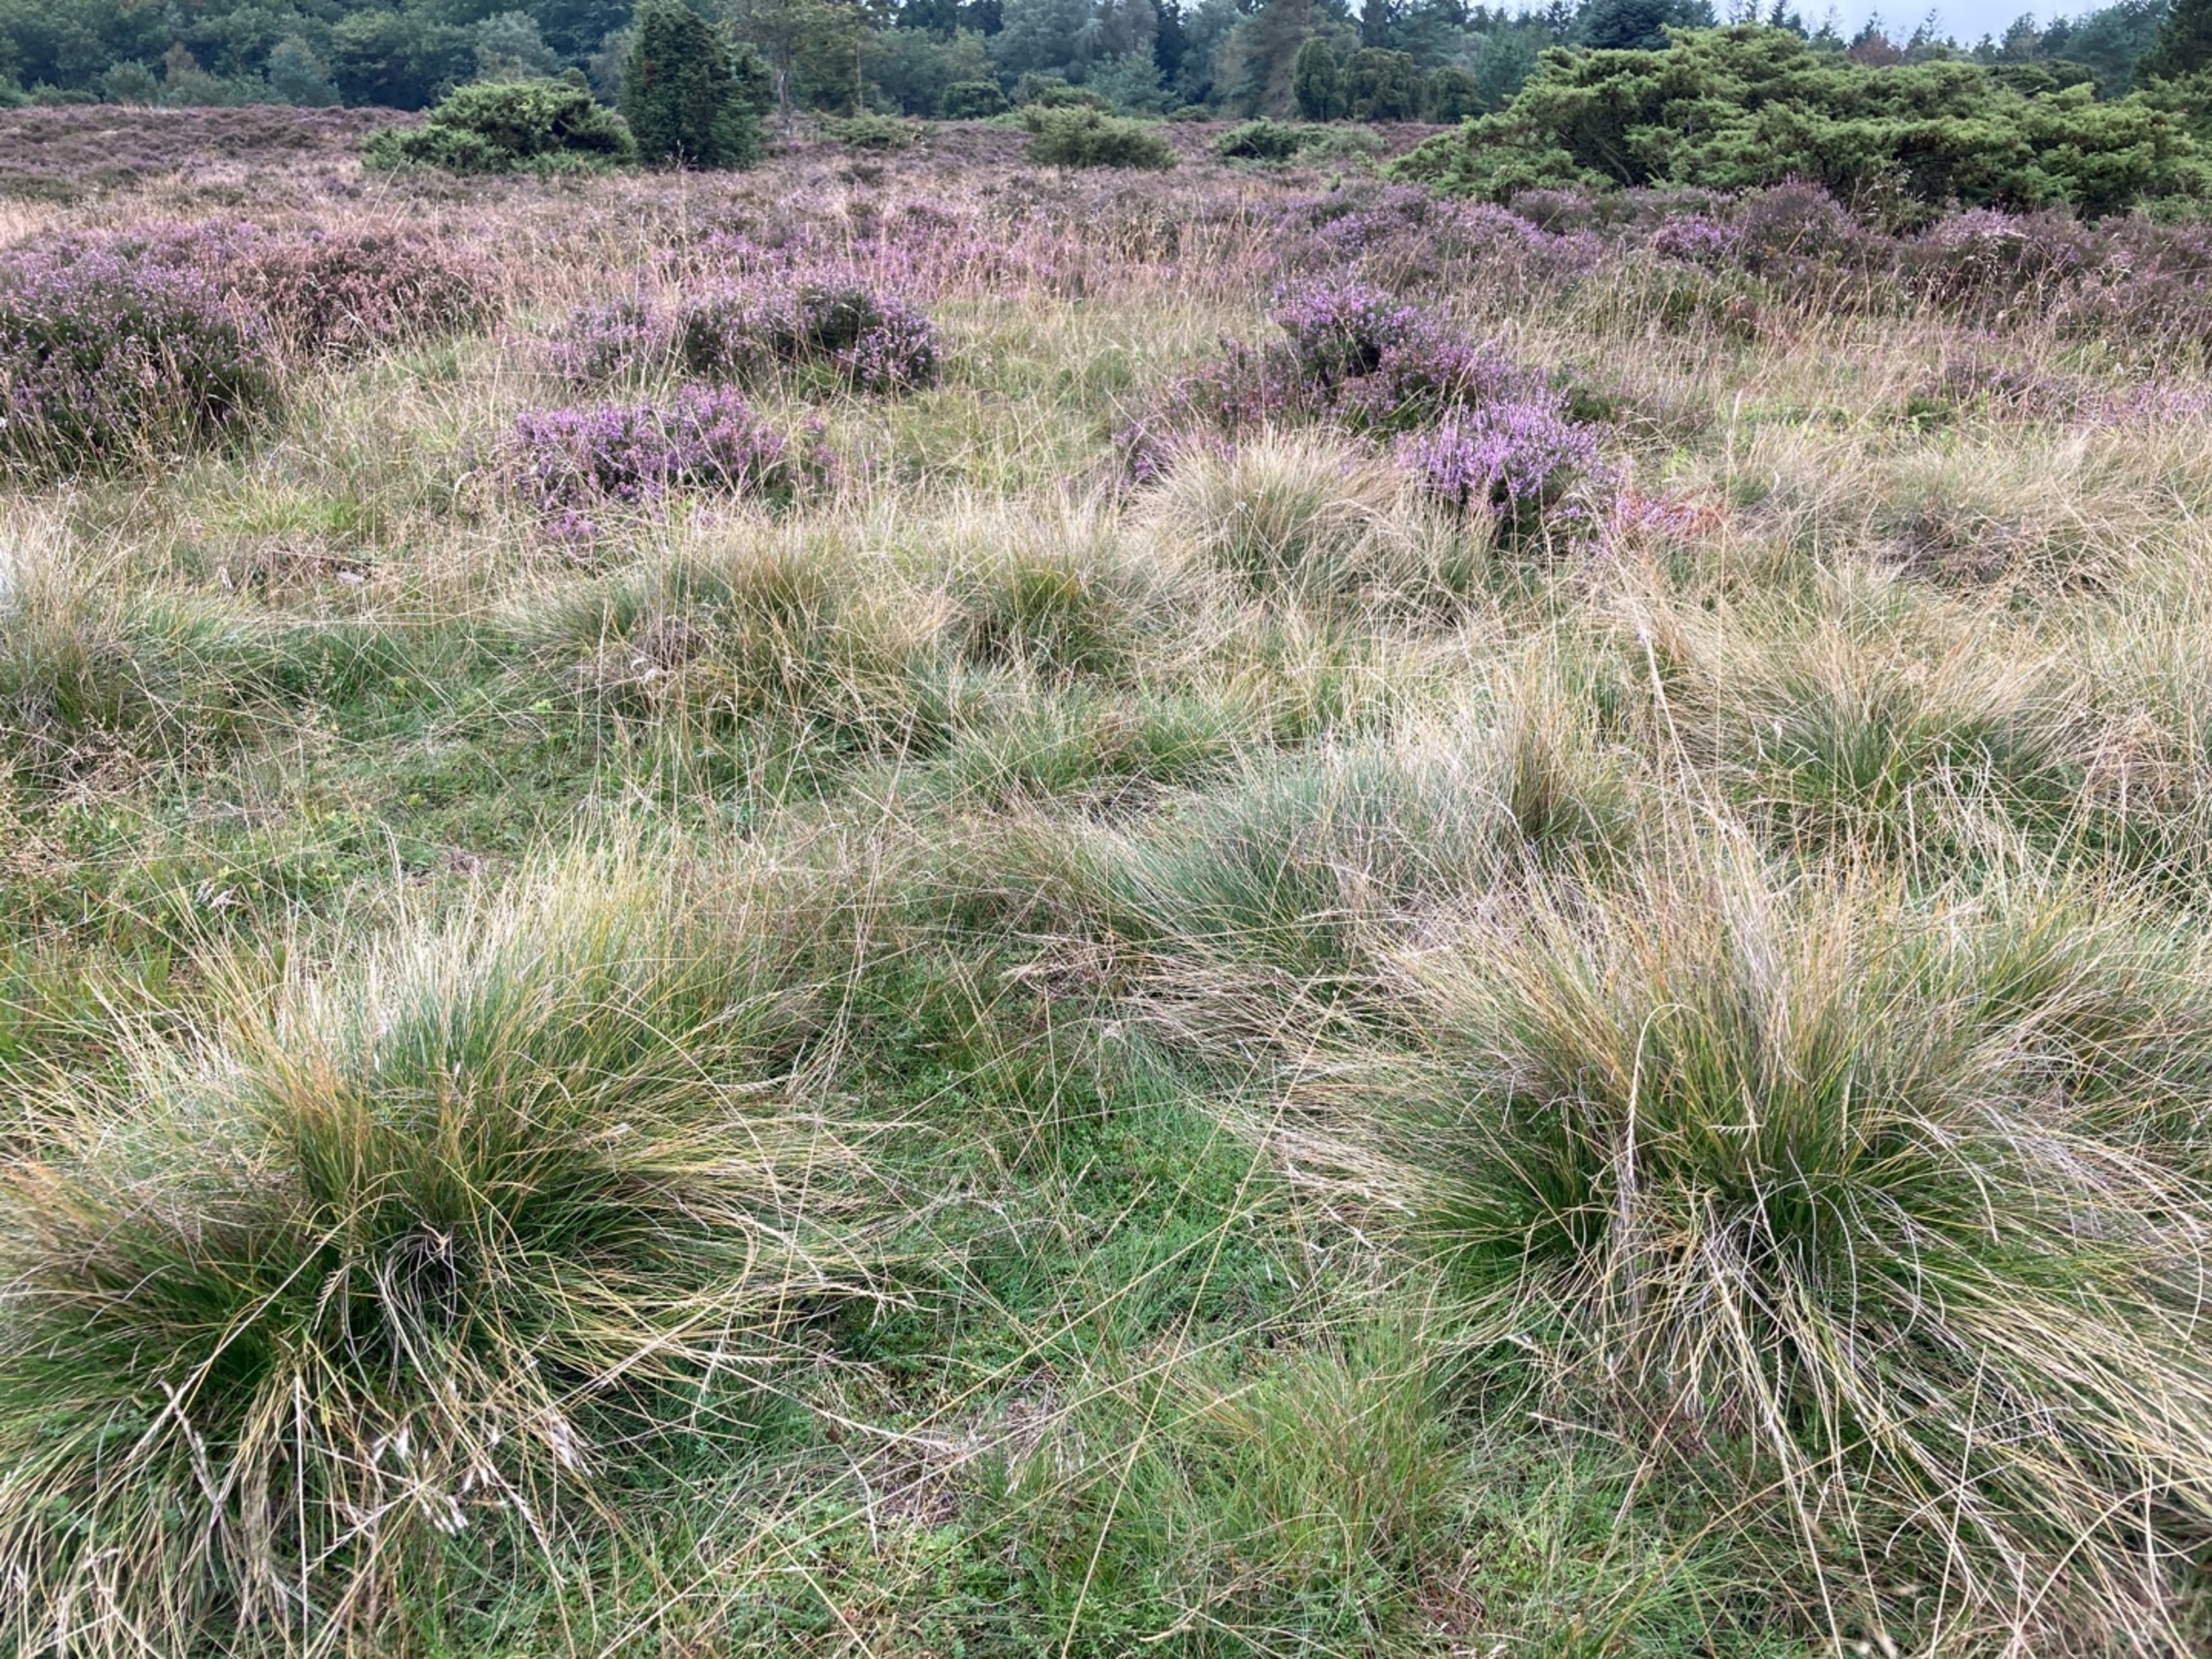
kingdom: Plantae
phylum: Tracheophyta
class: Liliopsida
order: Poales
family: Poaceae
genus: Nardus
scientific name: Nardus stricta
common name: Katteskæg
